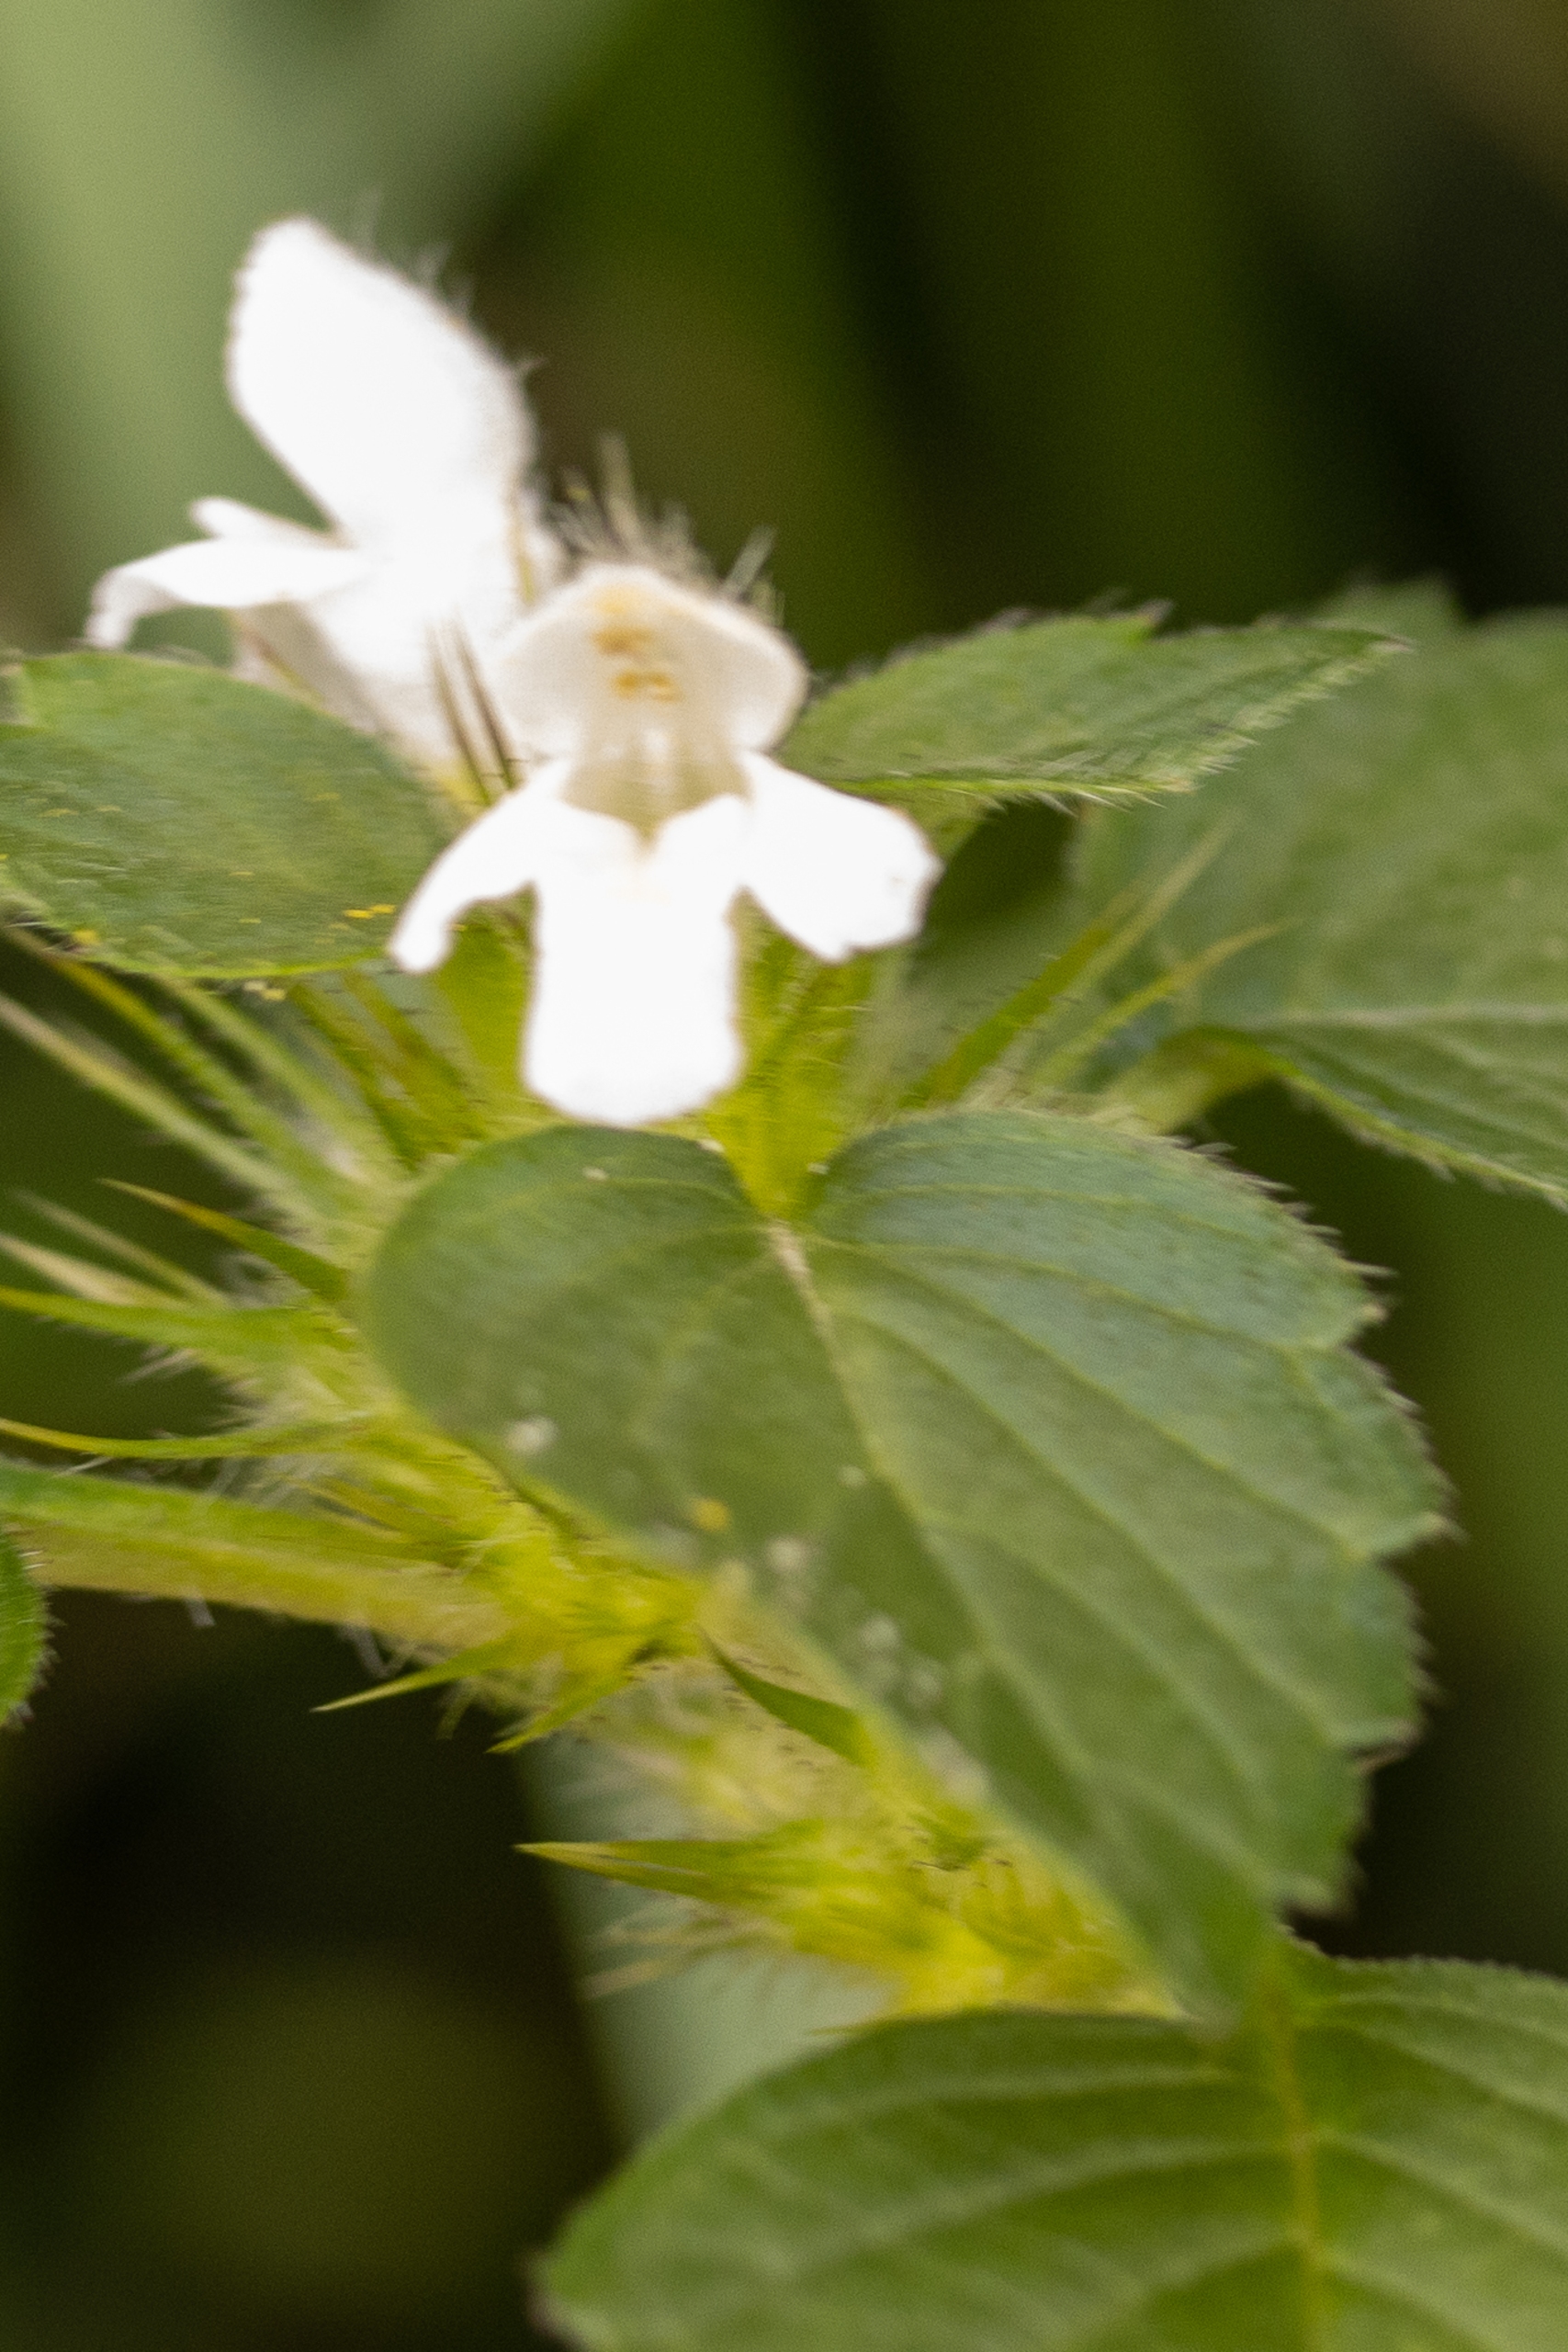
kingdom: Plantae
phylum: Tracheophyta
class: Magnoliopsida
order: Lamiales
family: Lamiaceae
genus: Galeopsis
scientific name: Galeopsis tetrahit
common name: Almindelig hanekro
